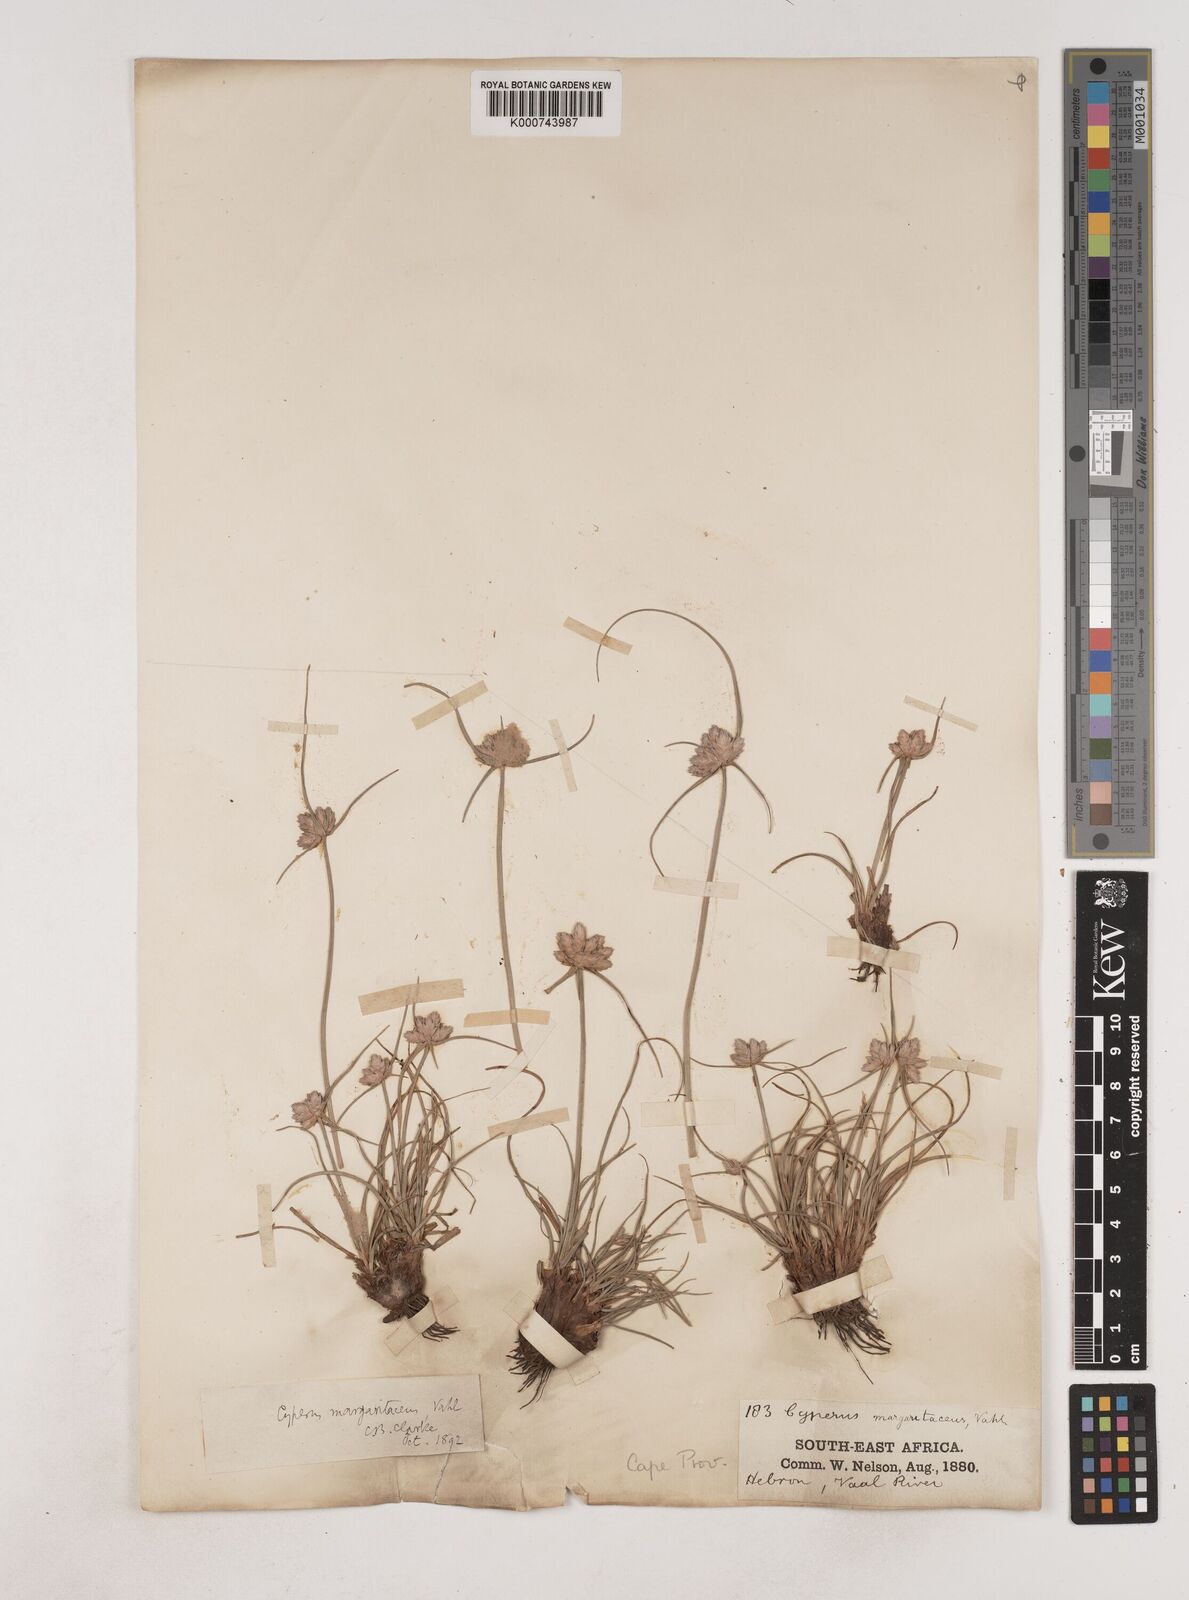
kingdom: Plantae
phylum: Tracheophyta
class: Liliopsida
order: Poales
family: Cyperaceae
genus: Cyperus
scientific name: Cyperus margaritaceus
